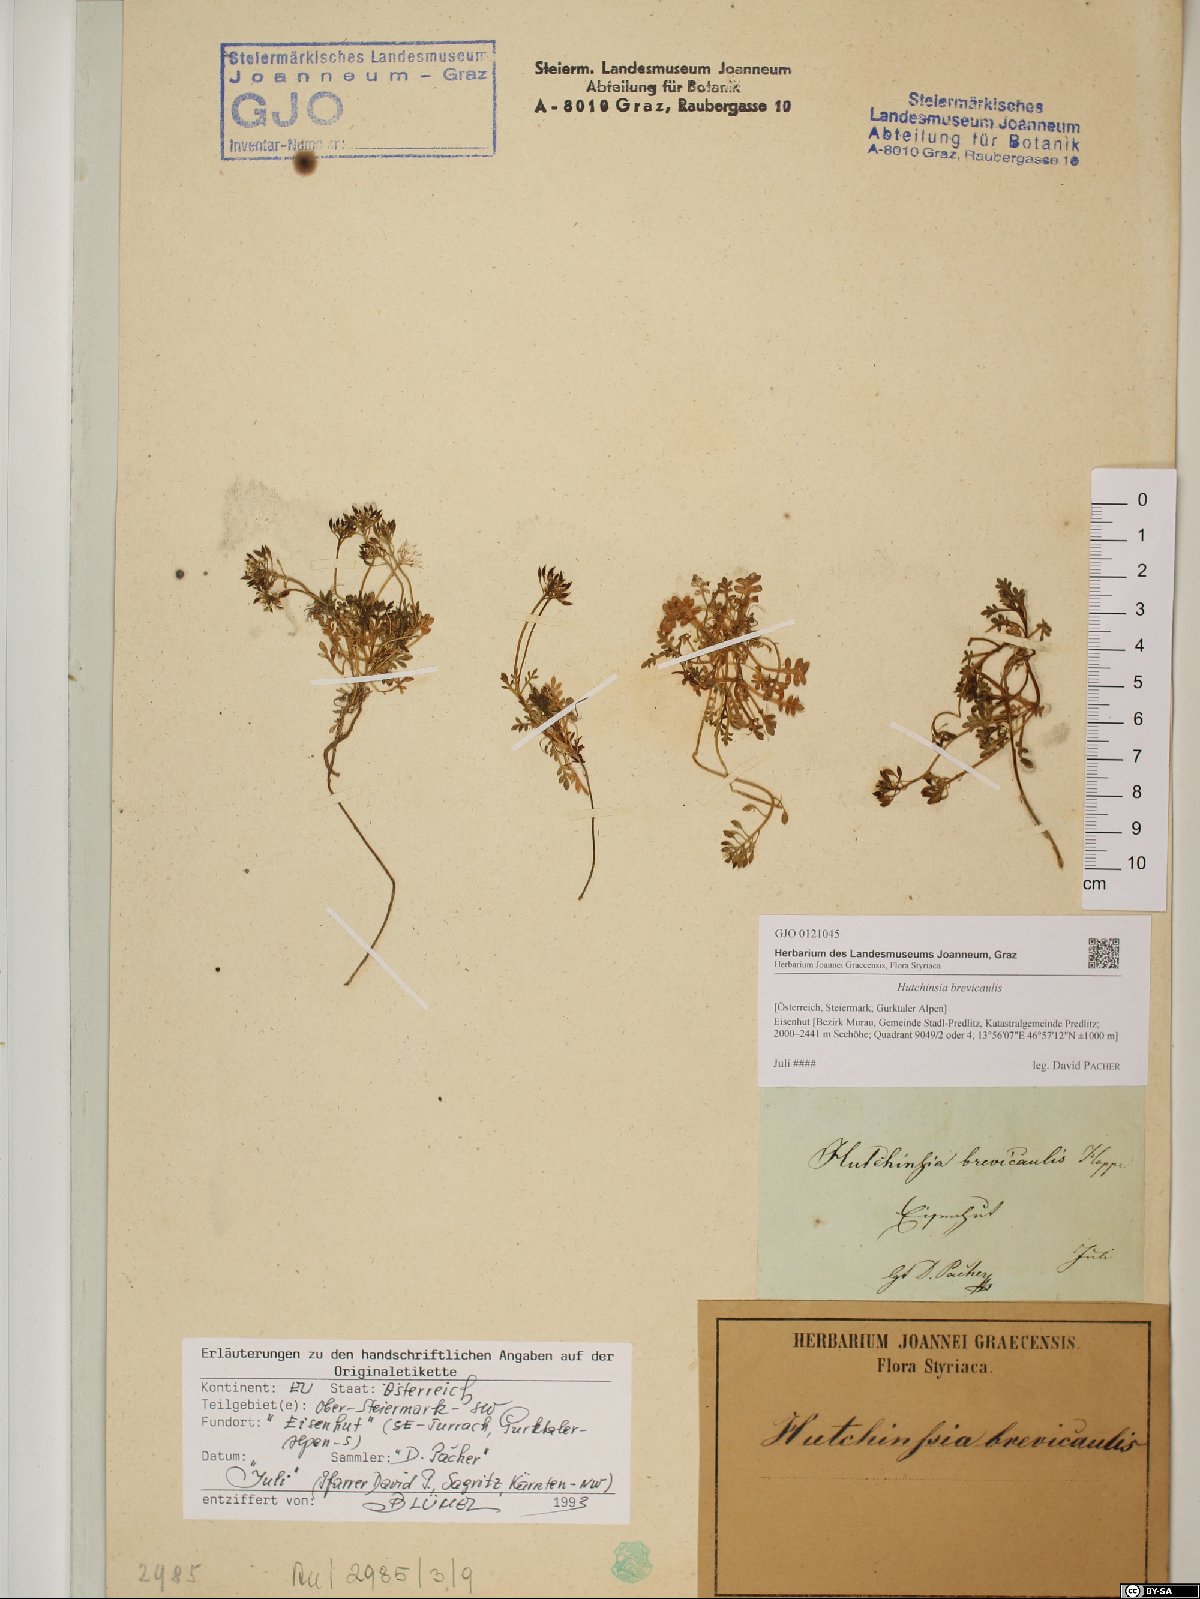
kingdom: Plantae
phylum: Tracheophyta
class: Magnoliopsida
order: Brassicales
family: Brassicaceae
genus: Hornungia
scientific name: Hornungia alpina
